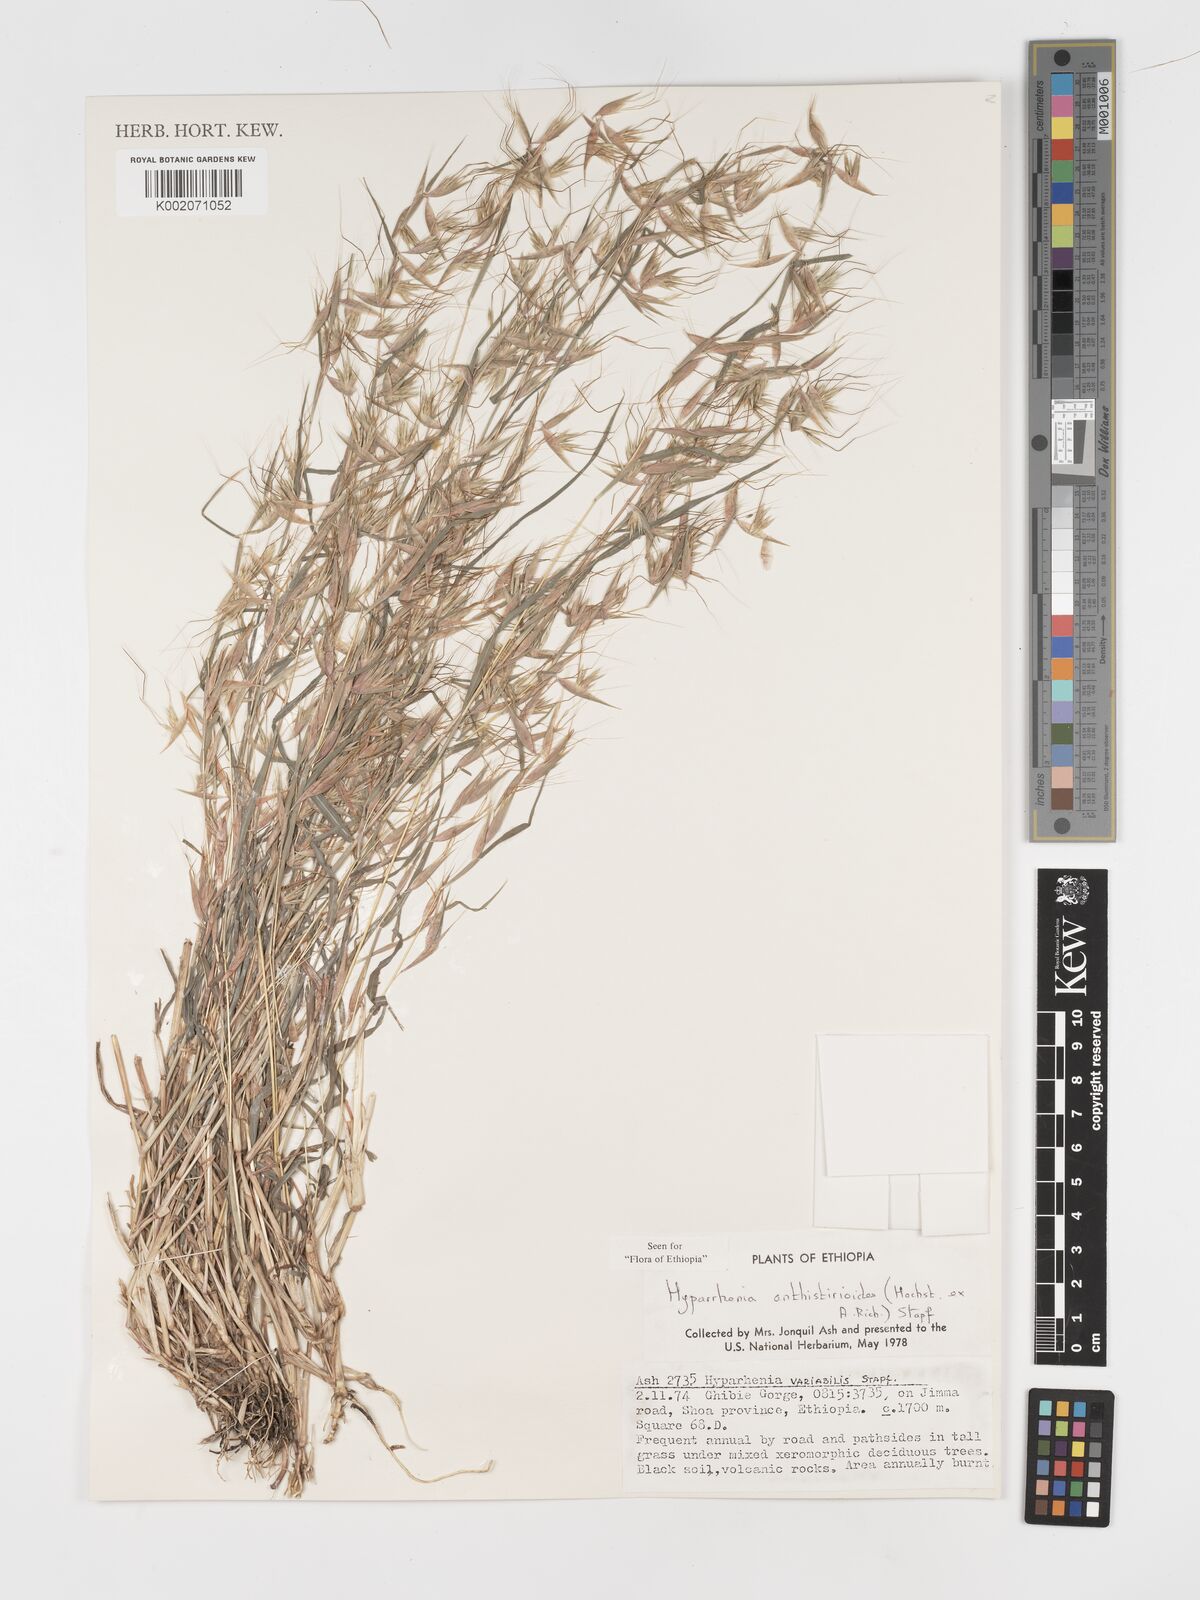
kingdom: Plantae
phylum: Tracheophyta
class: Liliopsida
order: Poales
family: Poaceae
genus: Hyparrhenia
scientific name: Hyparrhenia anthistirioides
